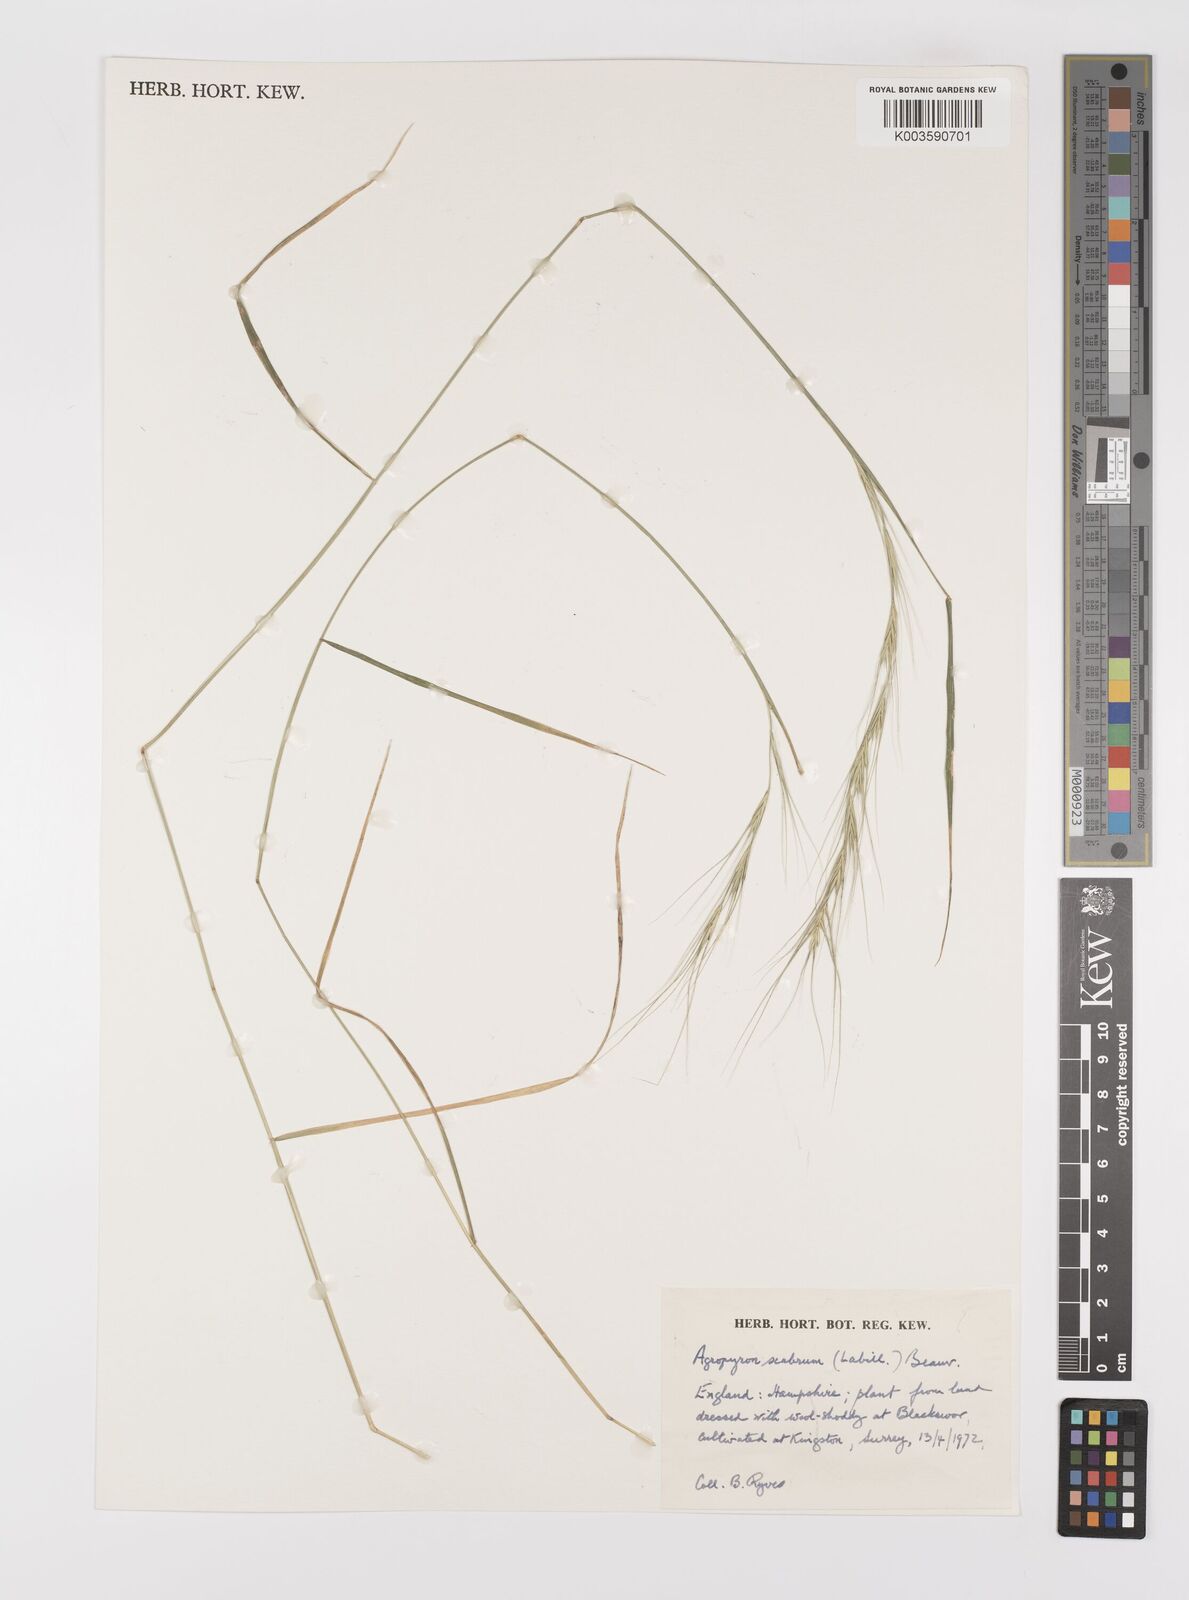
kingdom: Plantae
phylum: Tracheophyta
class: Liliopsida
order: Poales
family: Poaceae
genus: Elymus
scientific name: Elymus
